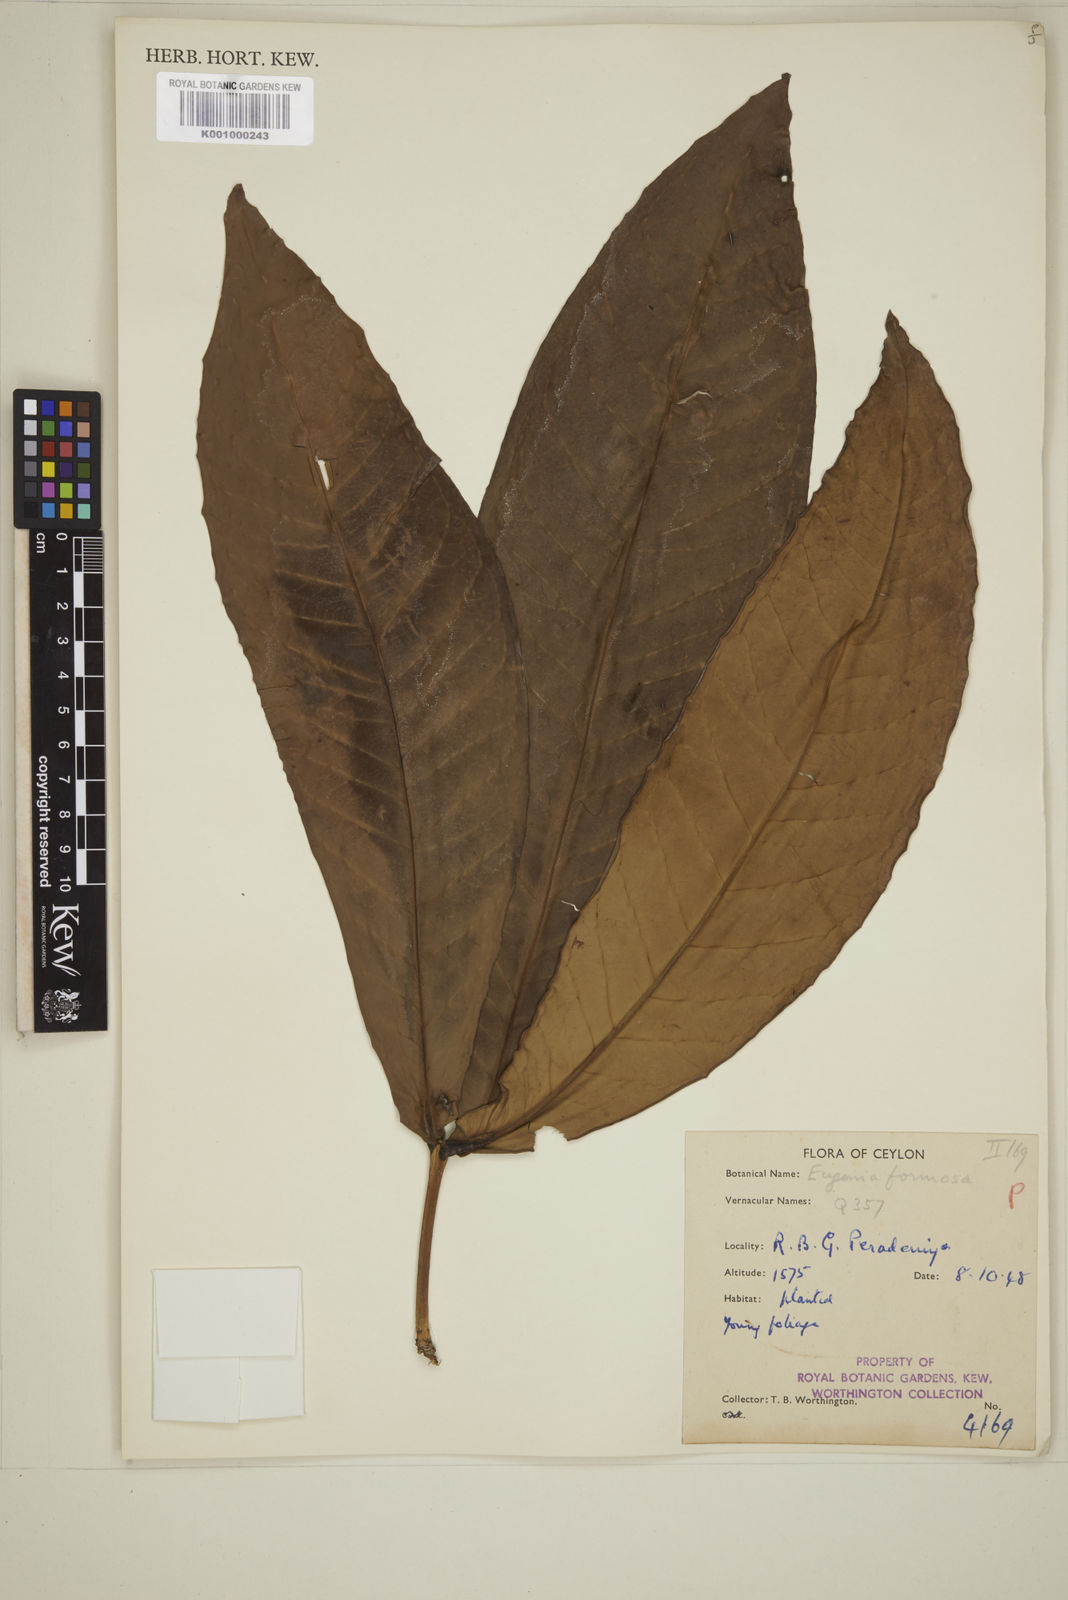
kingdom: Plantae
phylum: Tracheophyta
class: Magnoliopsida
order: Myrtales
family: Myrtaceae
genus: Eugenia
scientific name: Eugenia
